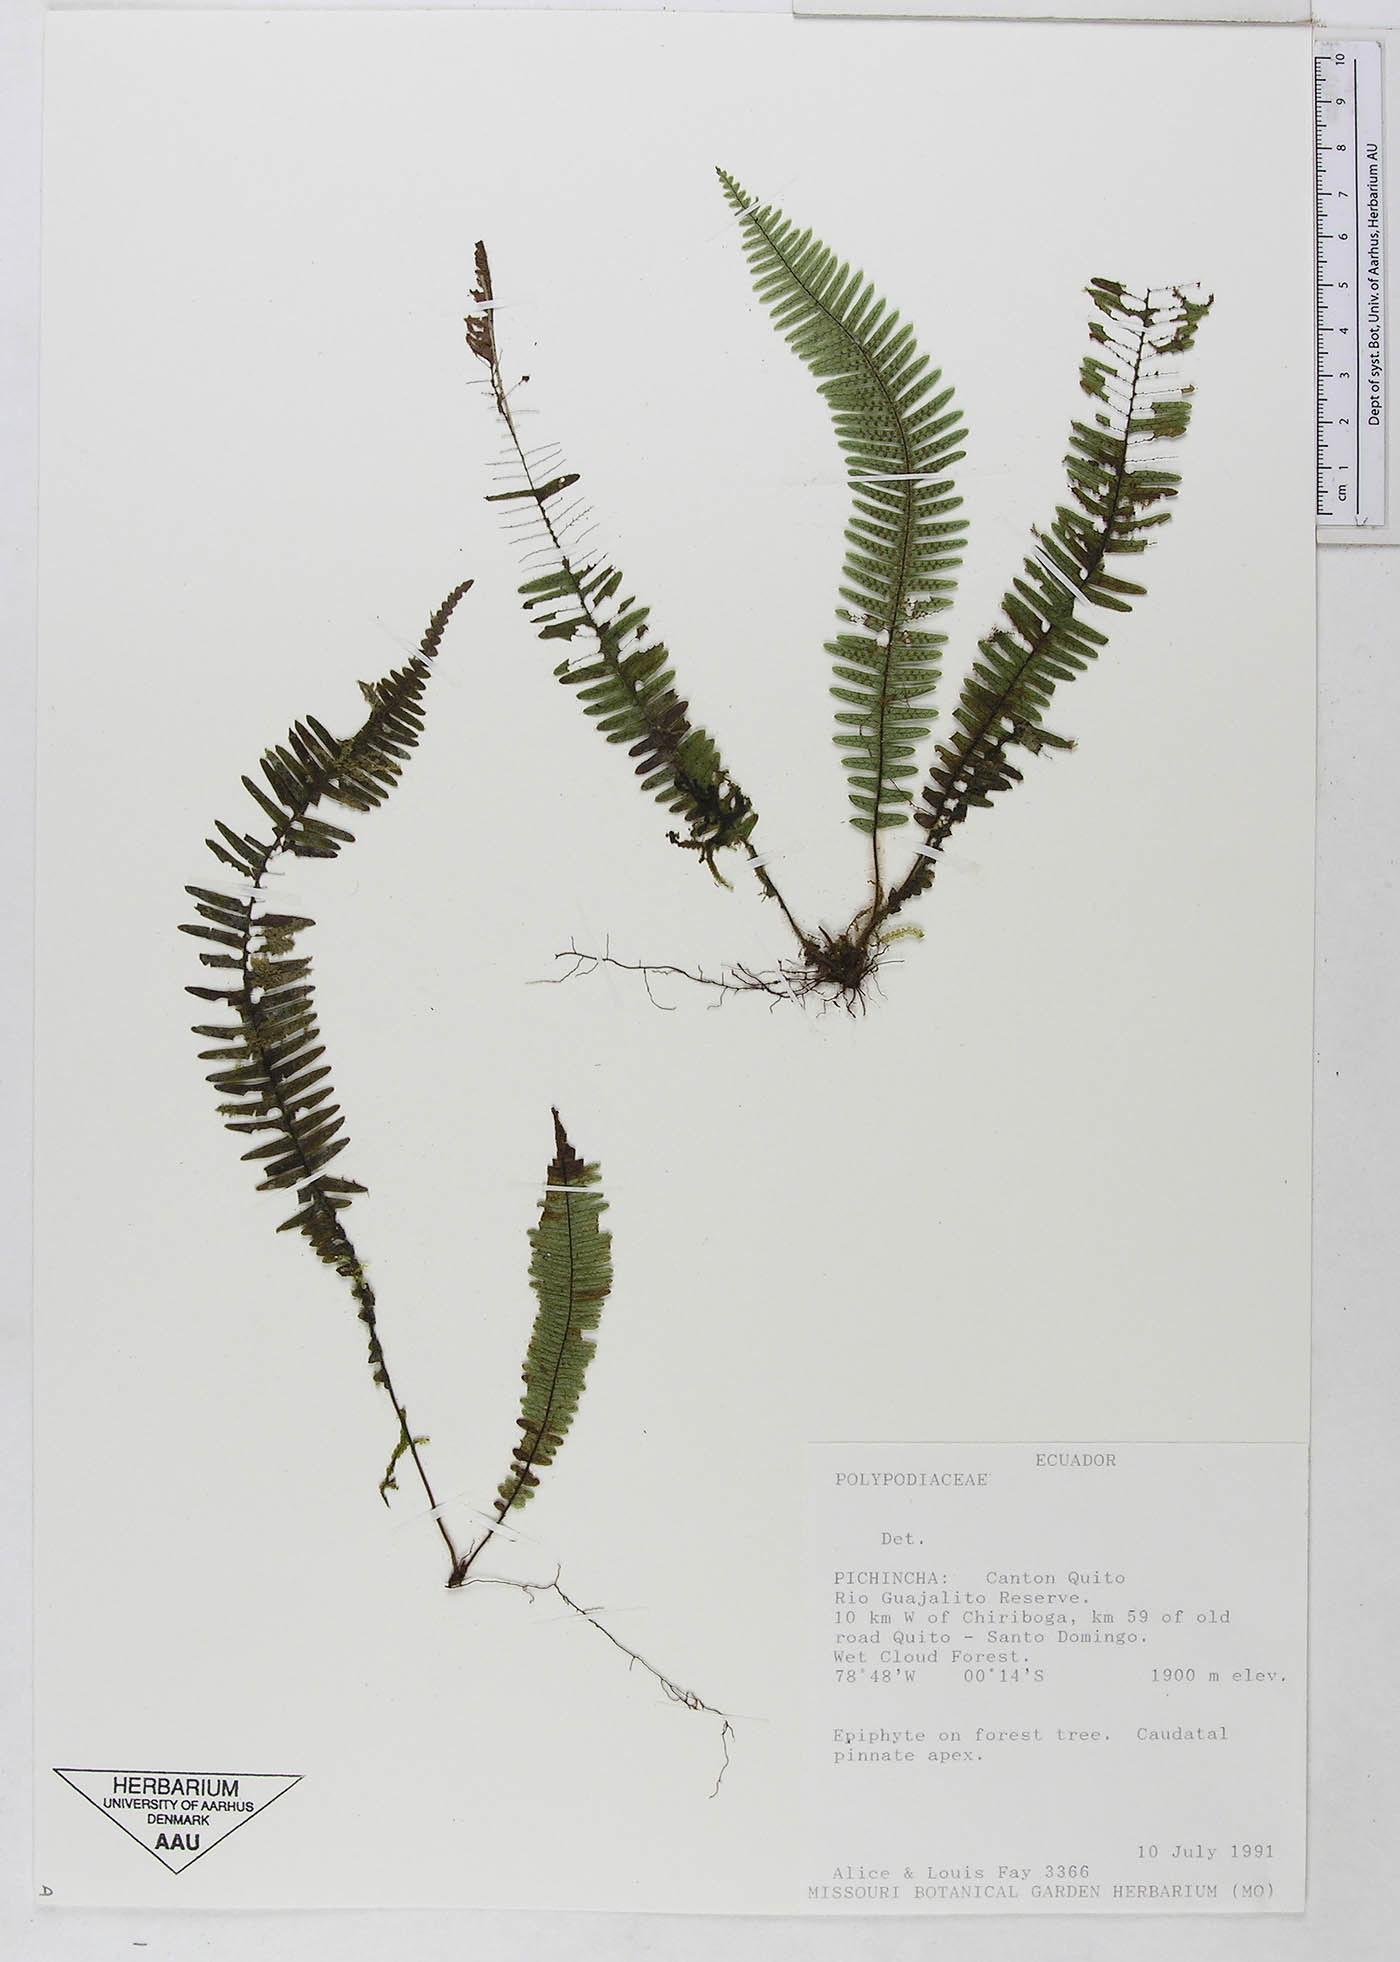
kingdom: Plantae
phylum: Tracheophyta
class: Polypodiopsida
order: Polypodiales
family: Polypodiaceae
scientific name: Polypodiaceae
